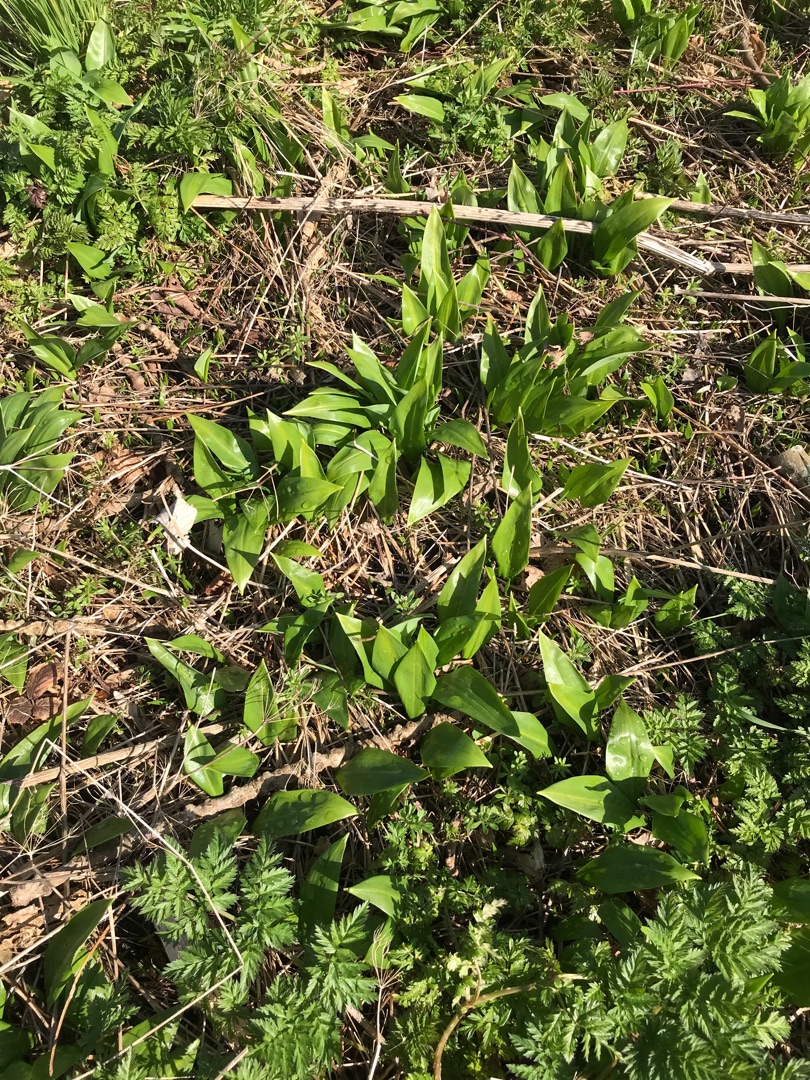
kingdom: Plantae
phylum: Tracheophyta
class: Liliopsida
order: Asparagales
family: Amaryllidaceae
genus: Allium
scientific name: Allium ursinum
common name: Rams-løg
